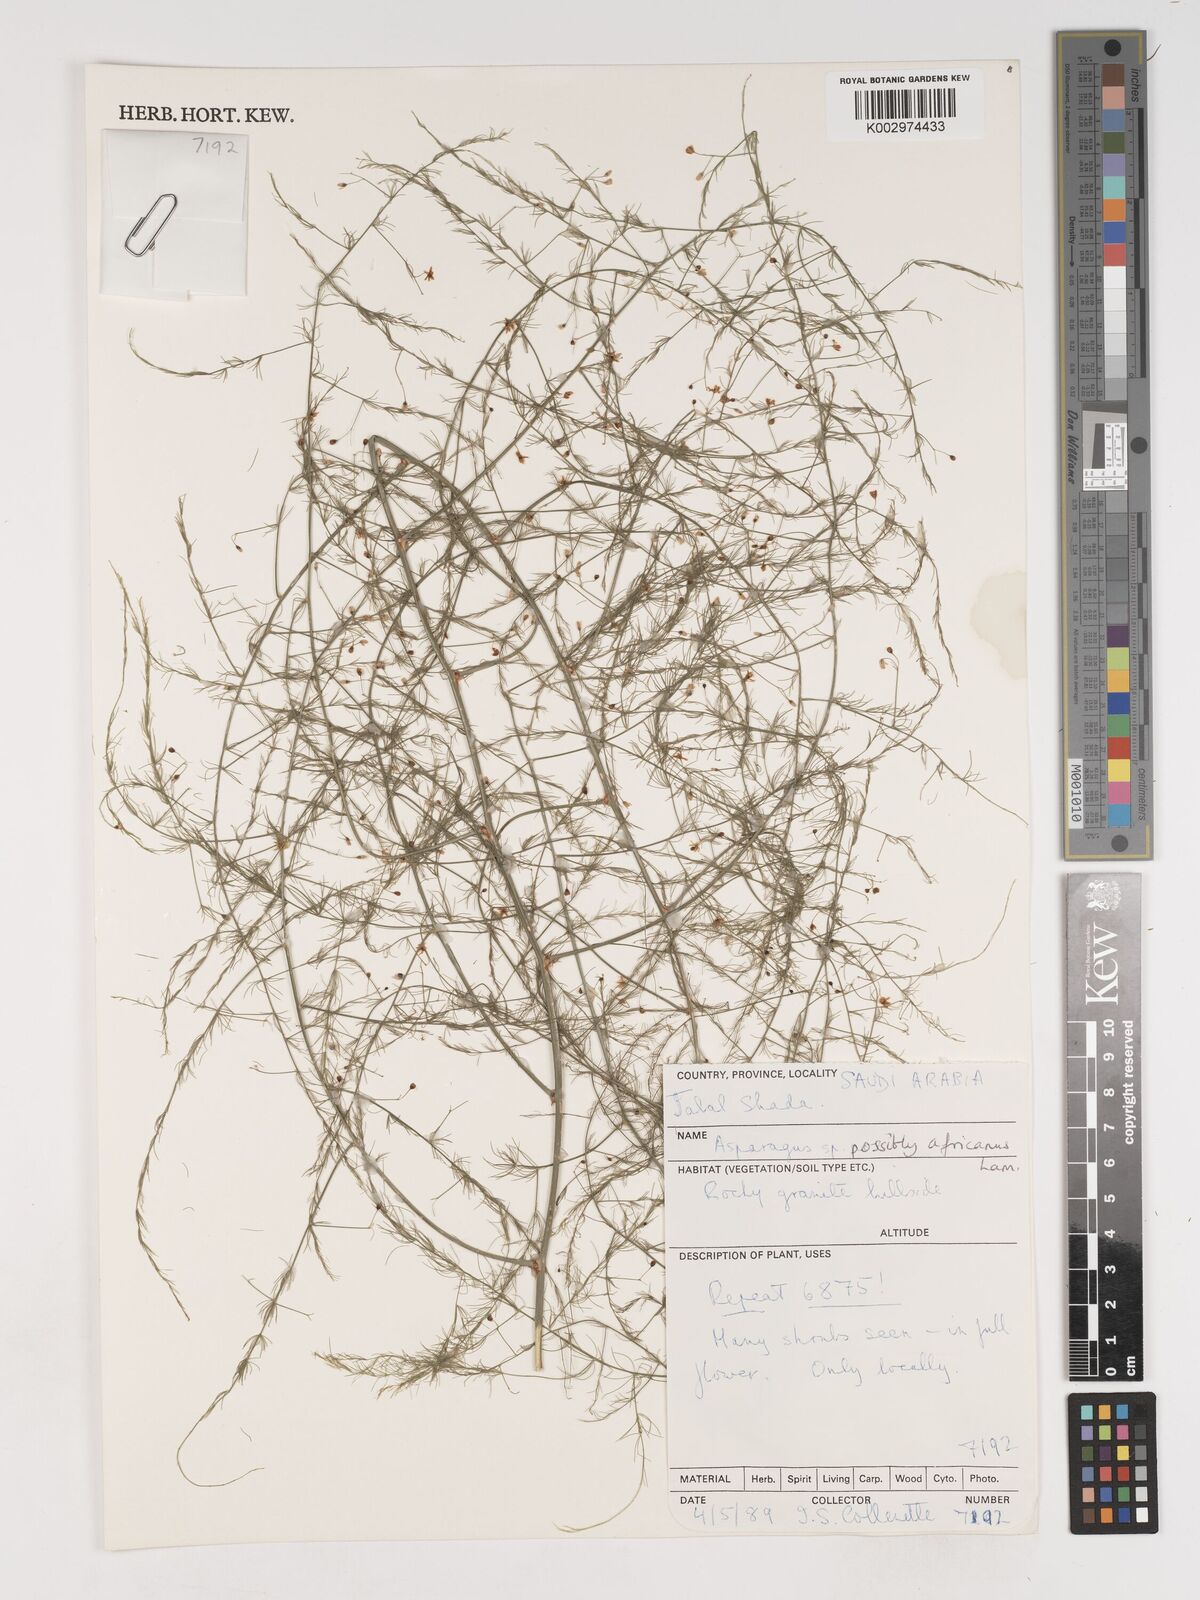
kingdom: Plantae
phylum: Tracheophyta
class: Liliopsida
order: Asparagales
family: Asparagaceae
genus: Asparagus
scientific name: Asparagus africanus
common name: Asparagus-fern
